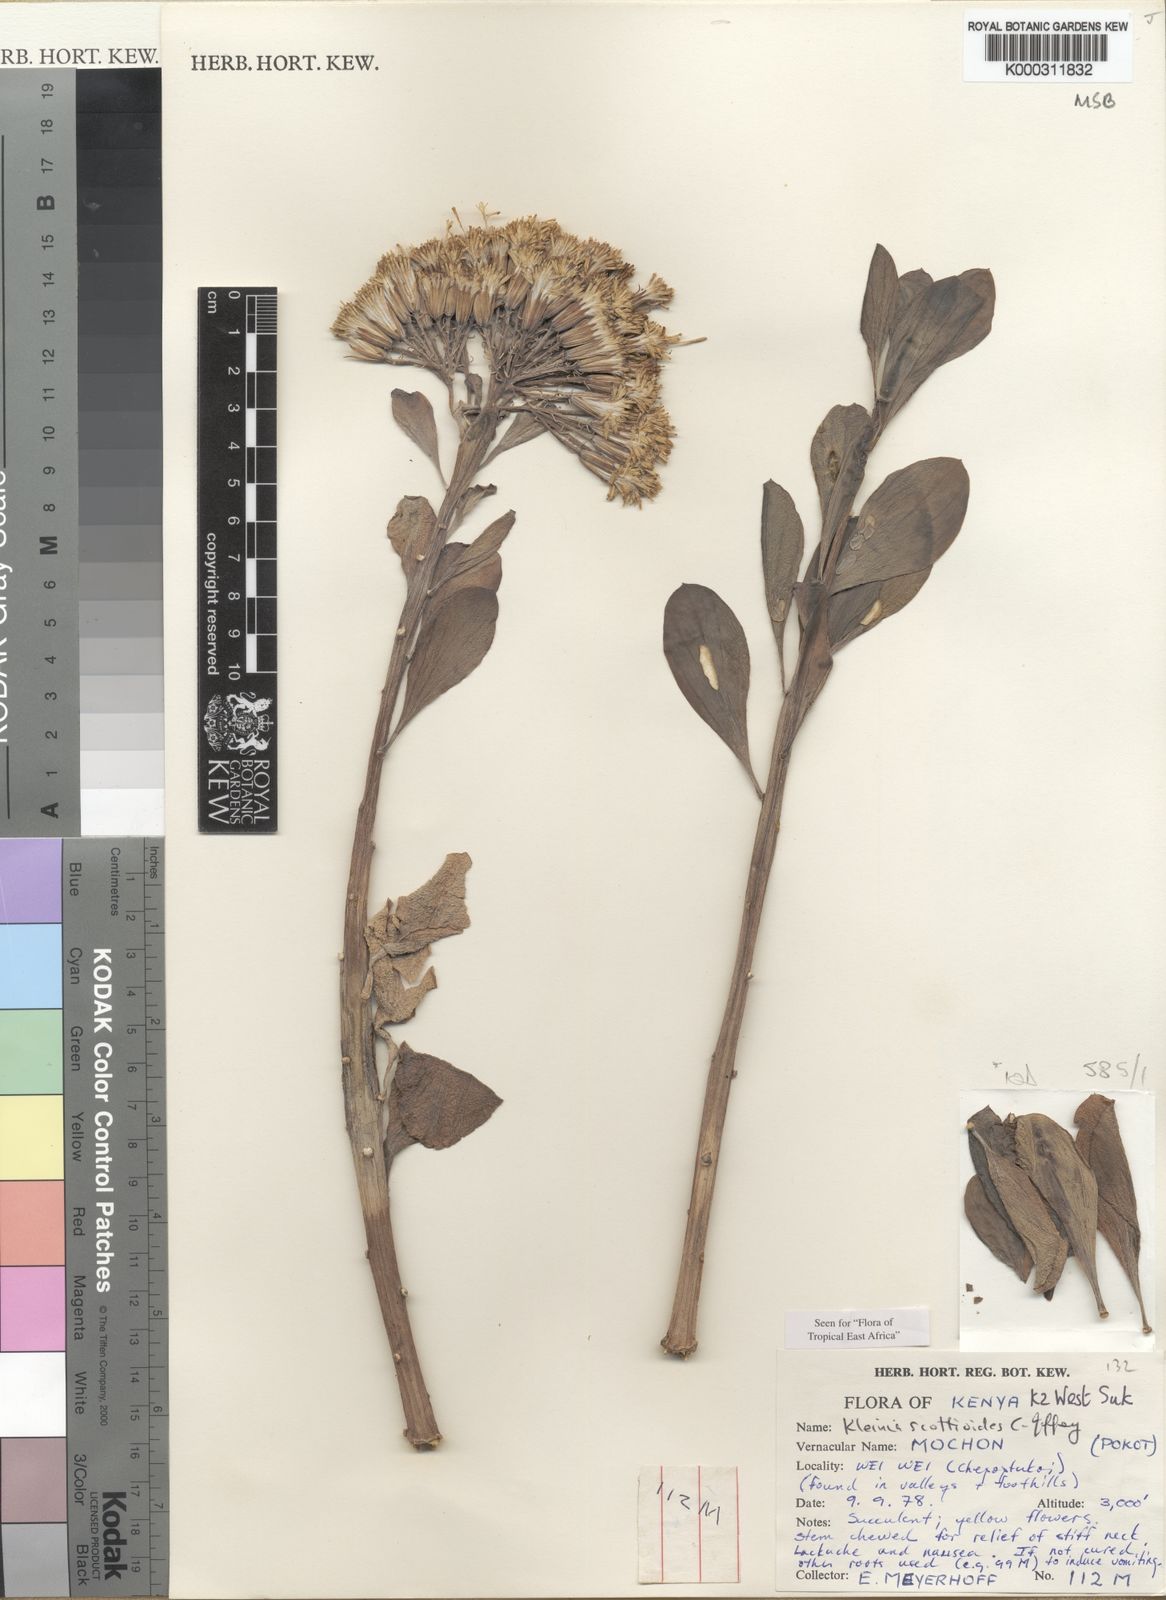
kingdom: Plantae
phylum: Tracheophyta
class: Magnoliopsida
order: Asterales
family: Asteraceae
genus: Curio
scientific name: Curio avasimontanus
